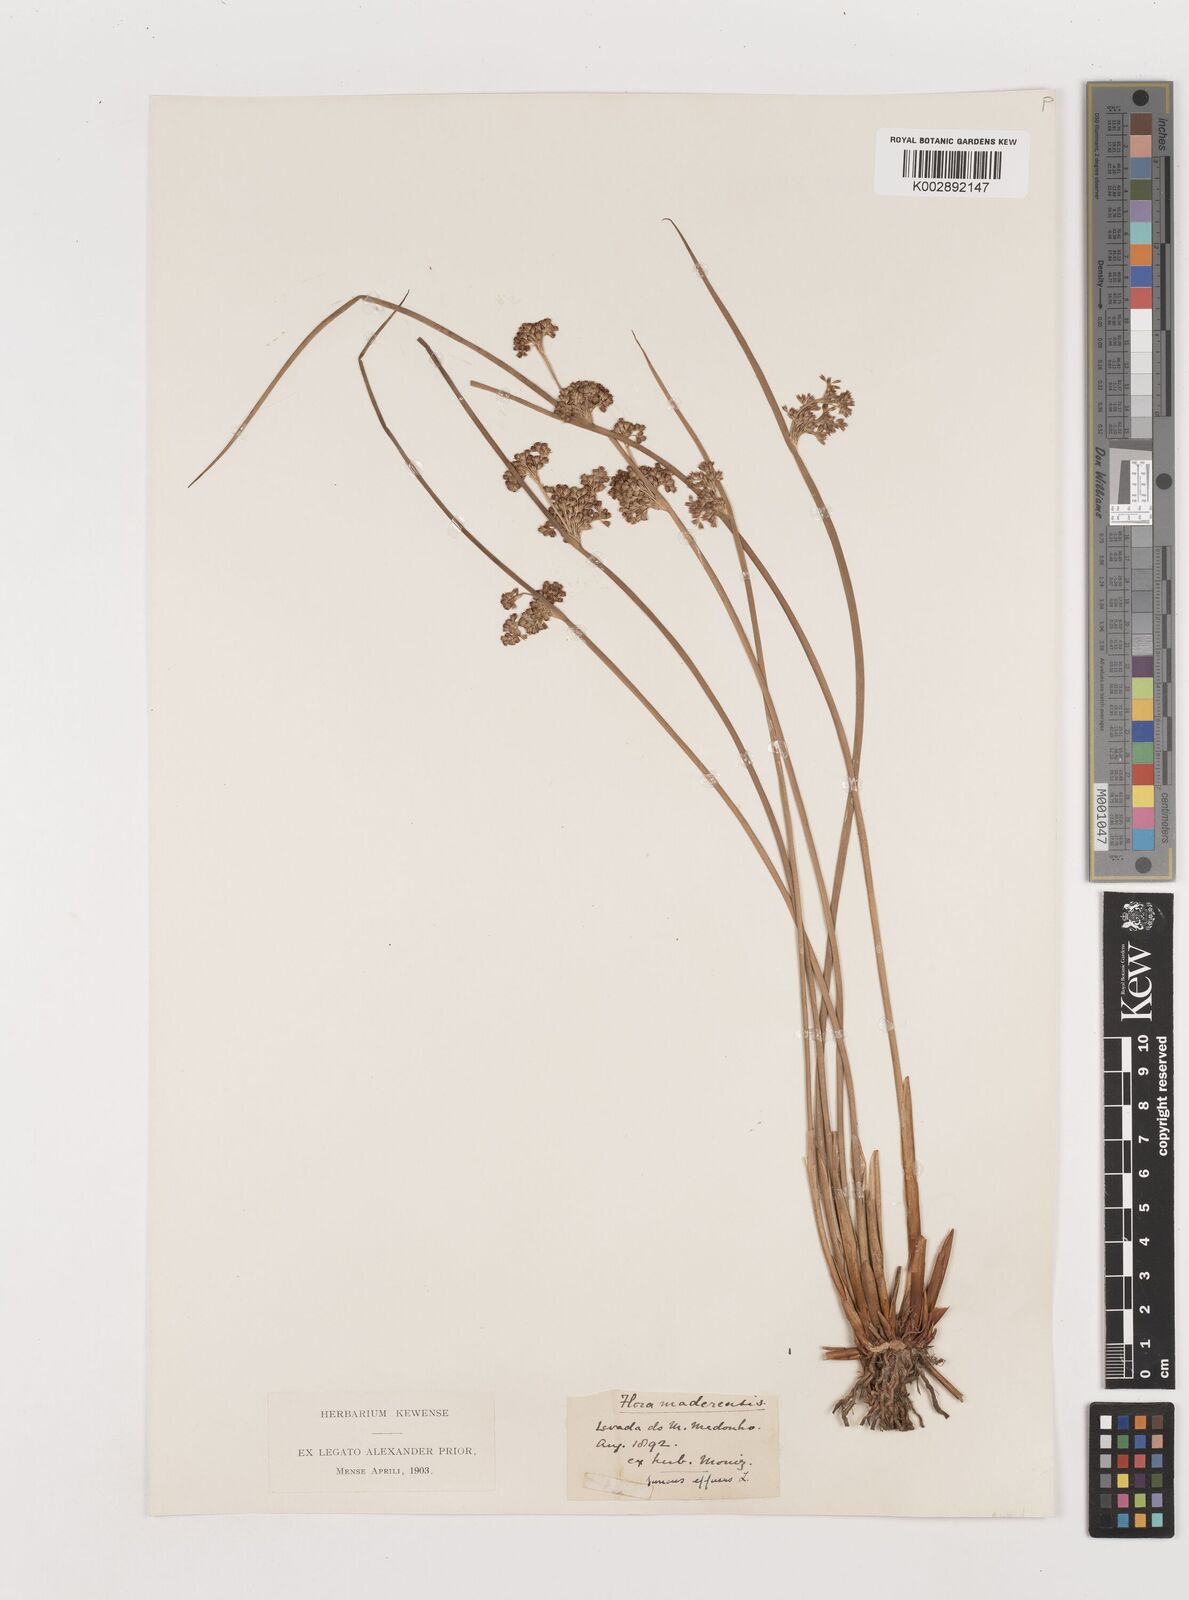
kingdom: Plantae
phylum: Tracheophyta
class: Liliopsida
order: Poales
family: Juncaceae
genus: Juncus
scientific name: Juncus effusus
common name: Soft rush
